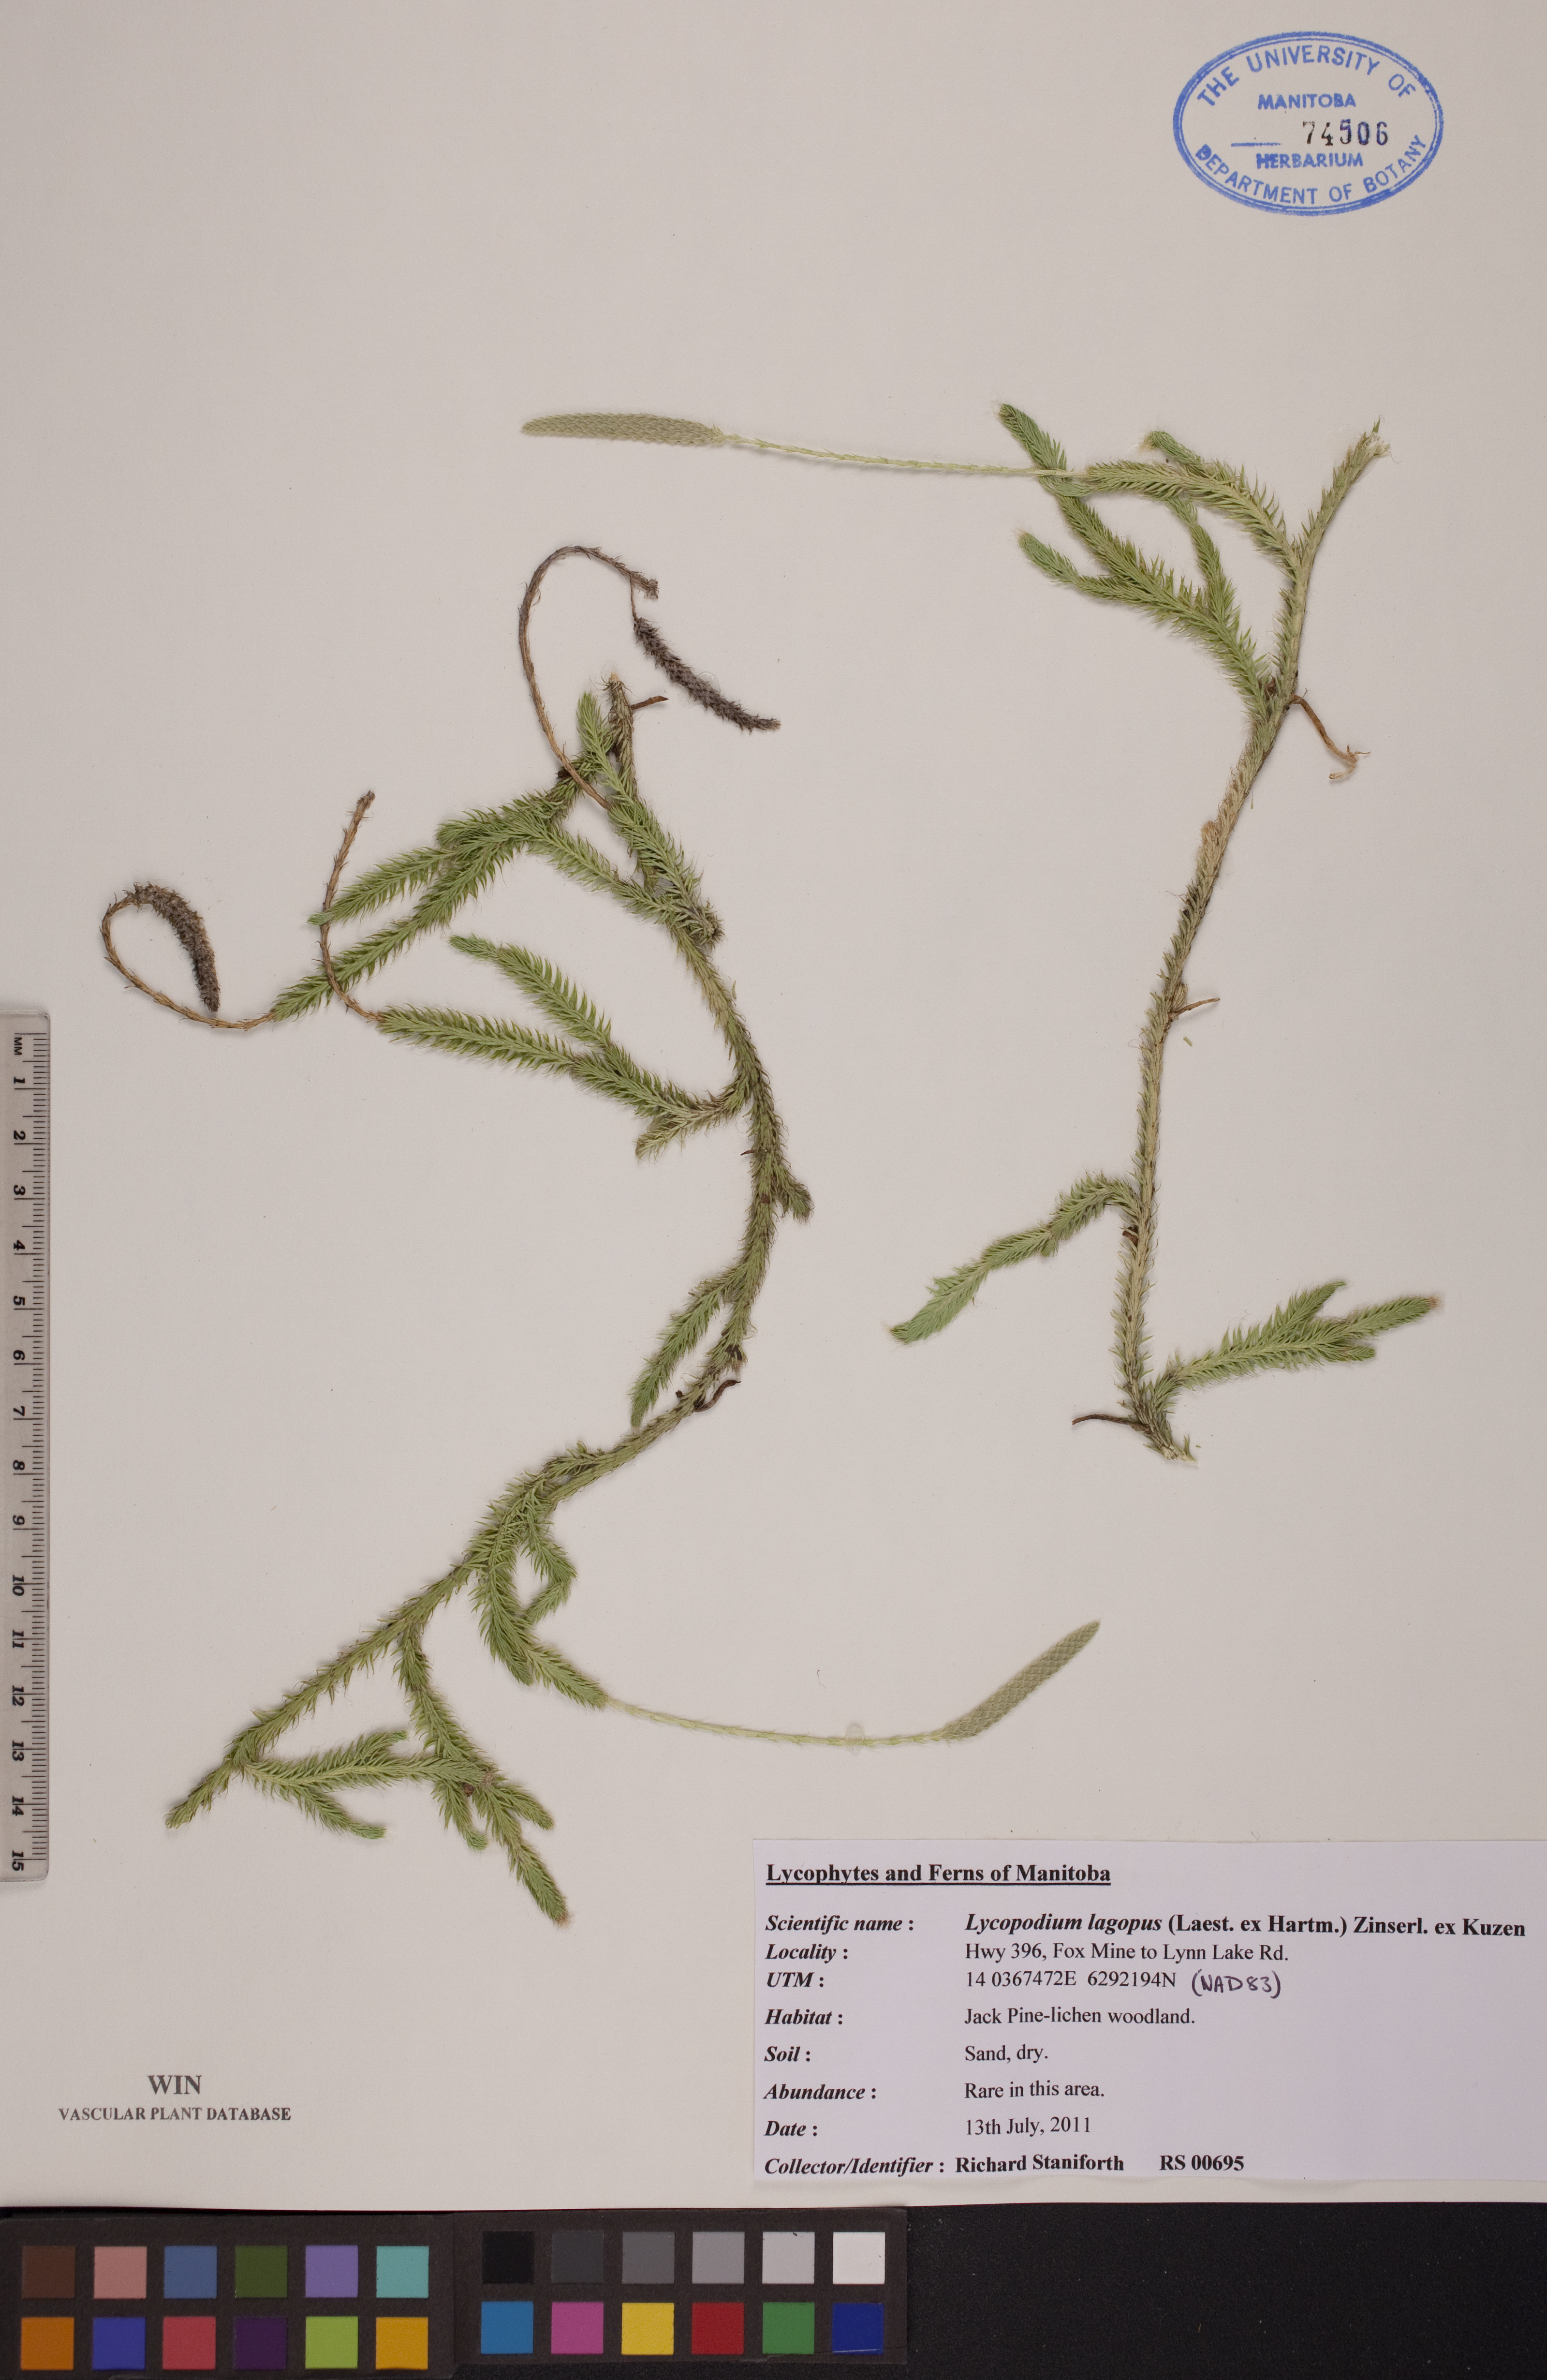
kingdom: Plantae
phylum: Tracheophyta
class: Lycopodiopsida
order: Lycopodiales
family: Lycopodiaceae
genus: Lycopodium
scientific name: Lycopodium lagopus
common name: One-cone clubmoss
